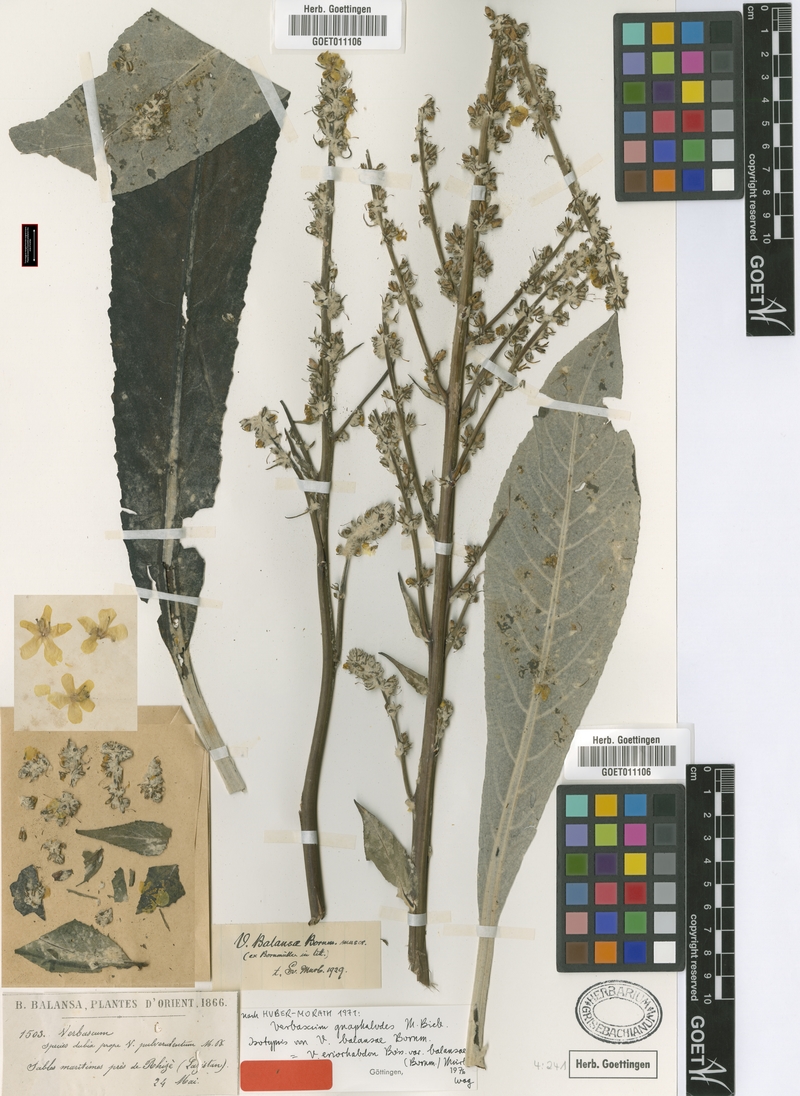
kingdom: Plantae
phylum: Tracheophyta
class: Magnoliopsida
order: Lamiales
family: Scrophulariaceae
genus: Verbascum
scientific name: Verbascum gnaphalodes
